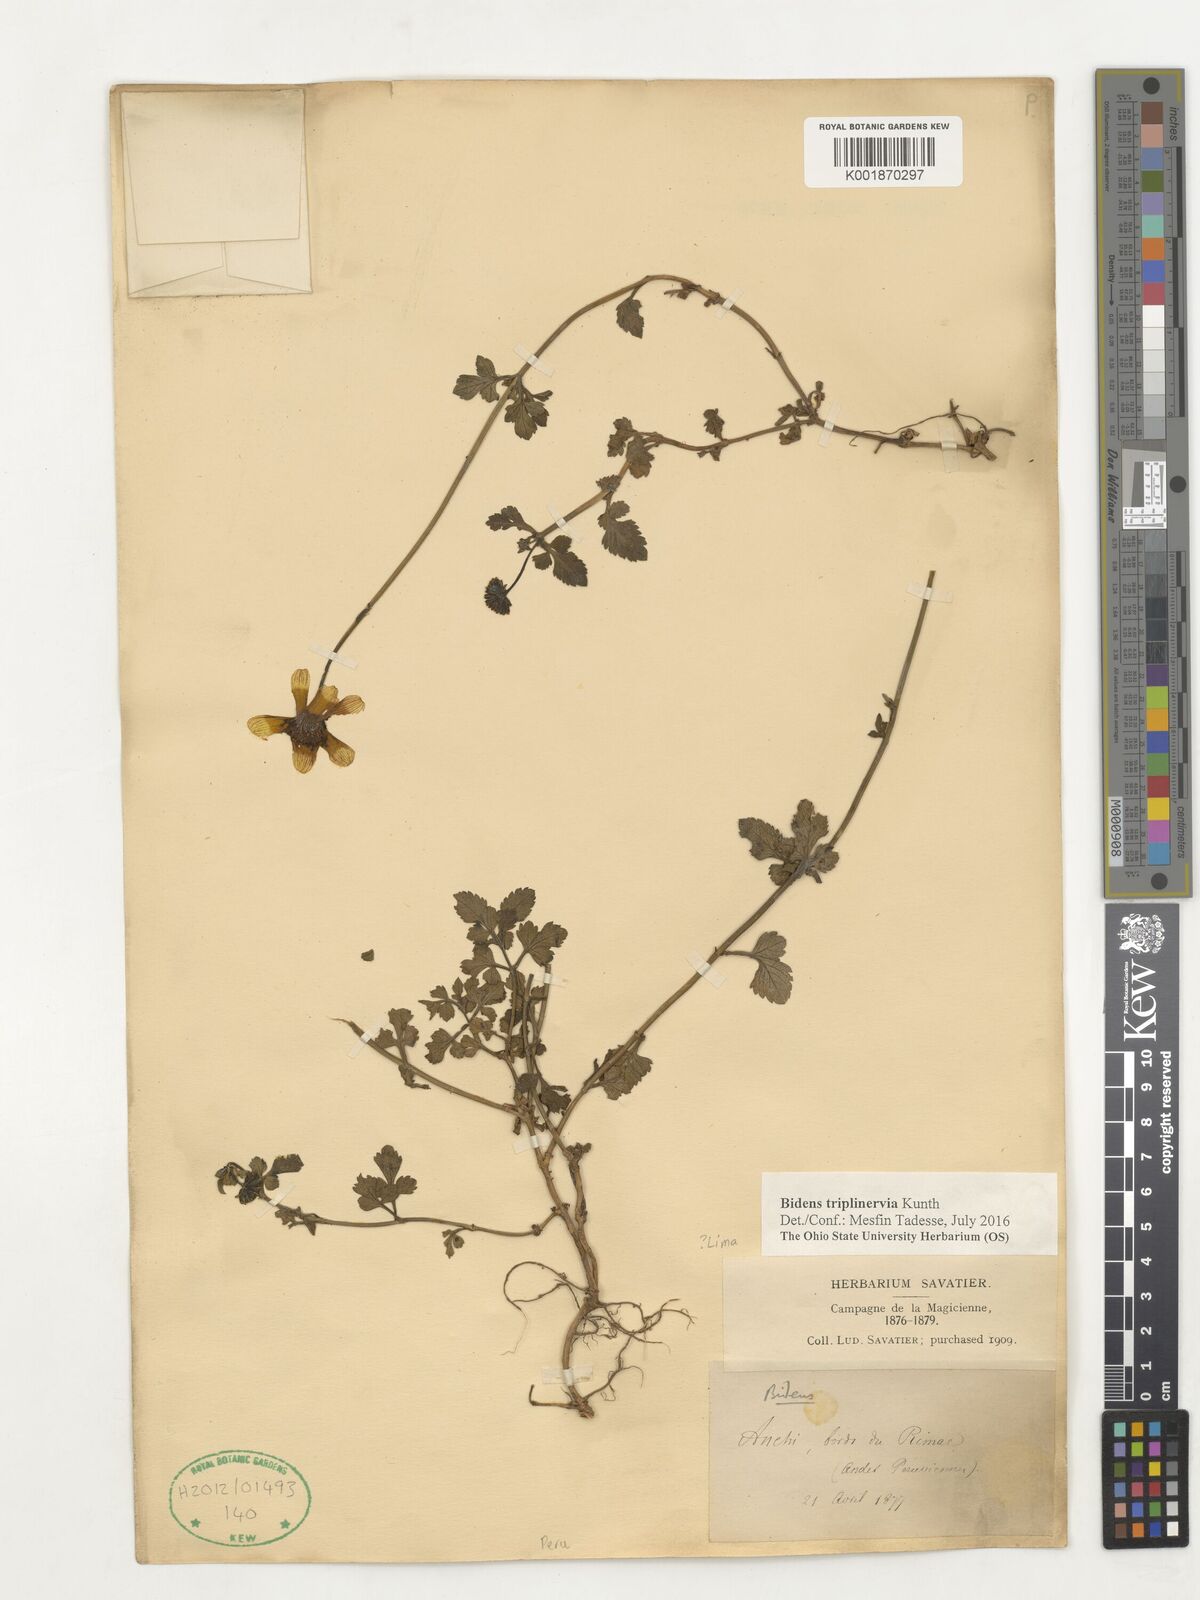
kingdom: Plantae
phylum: Tracheophyta
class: Magnoliopsida
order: Asterales
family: Asteraceae
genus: Bidens
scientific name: Bidens triplinervia
